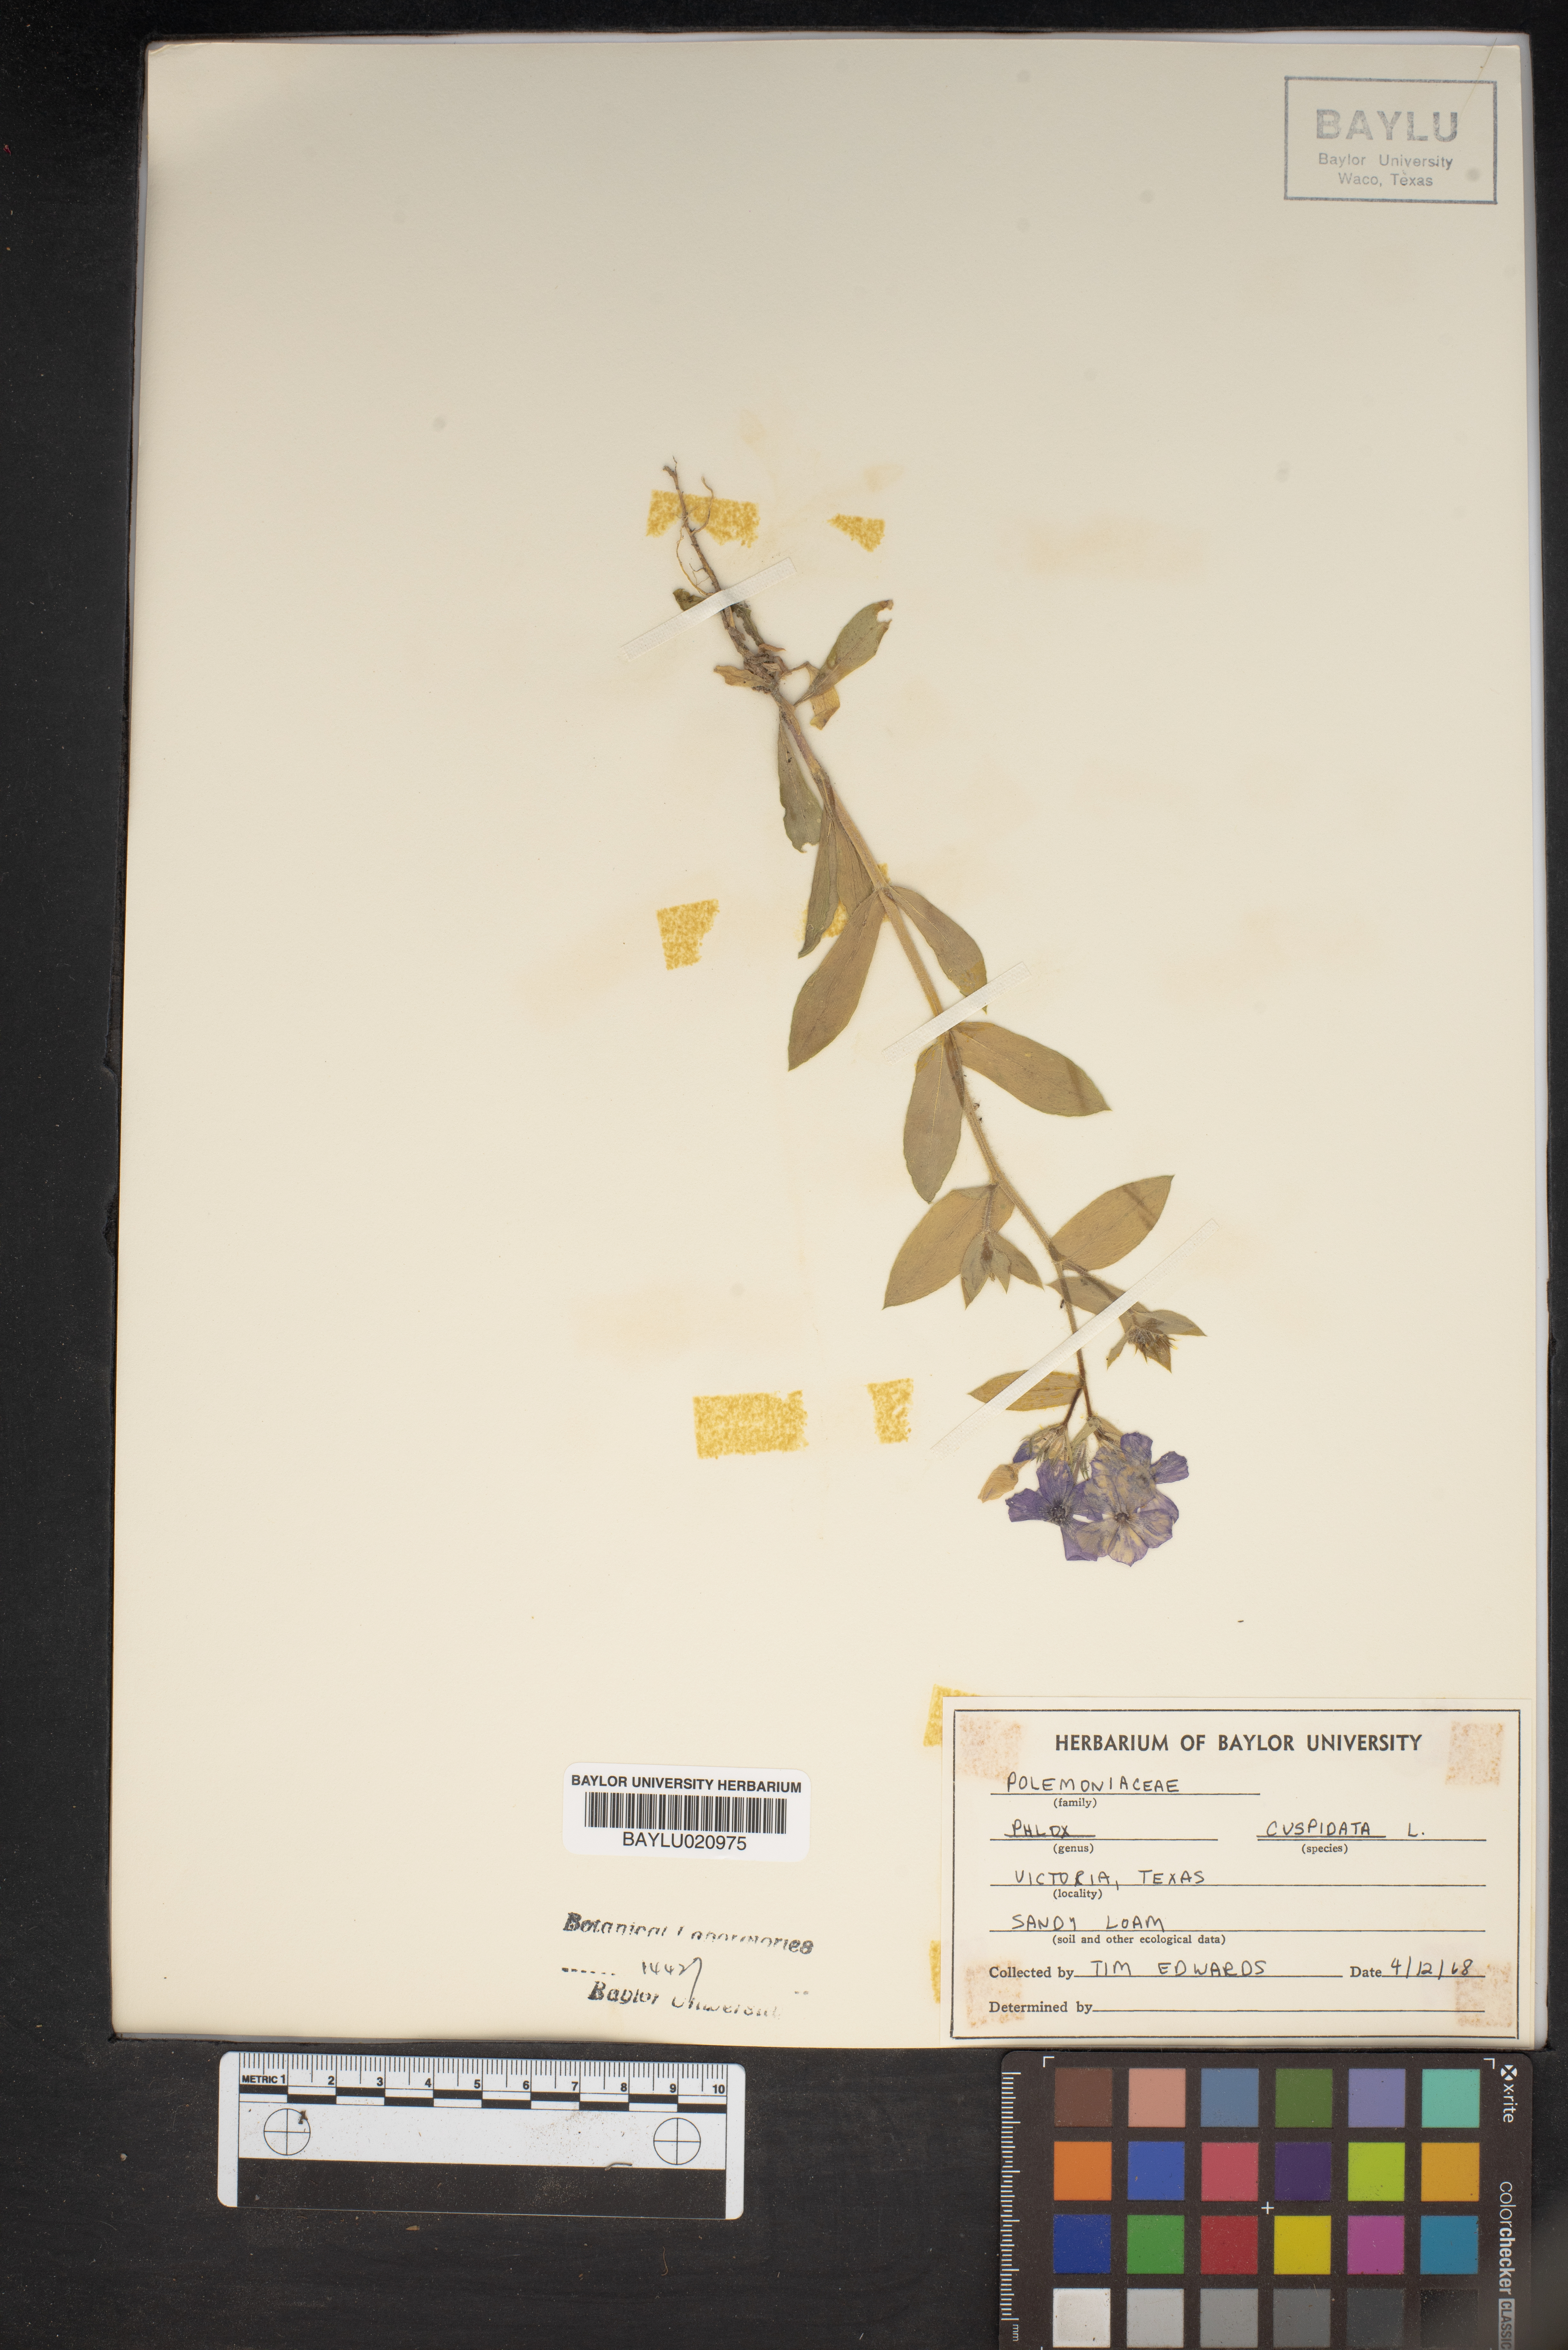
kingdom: Plantae
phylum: Tracheophyta
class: Magnoliopsida
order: Ericales
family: Polemoniaceae
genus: Phlox
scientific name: Phlox cuspidata
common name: Pointed phlox
